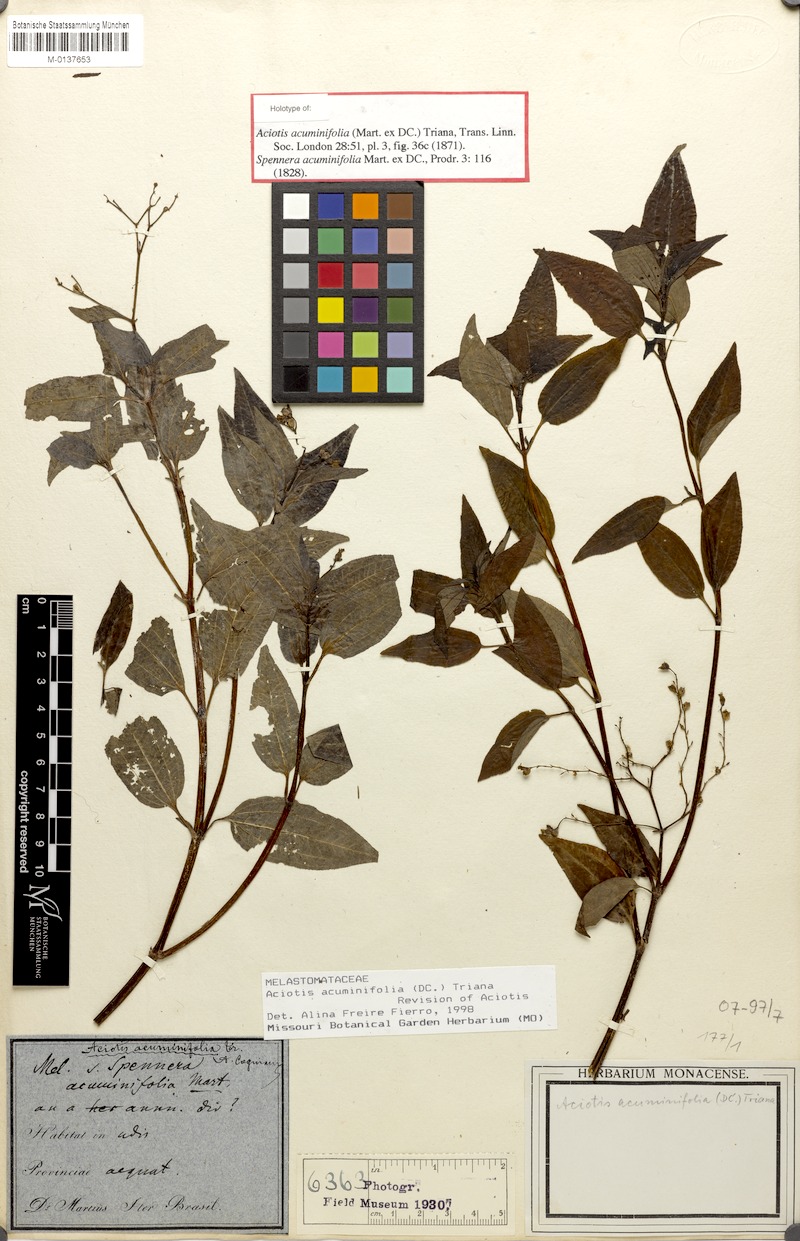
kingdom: Plantae
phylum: Tracheophyta
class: Magnoliopsida
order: Myrtales
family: Melastomataceae
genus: Aciotis
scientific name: Aciotis acuminifolia
